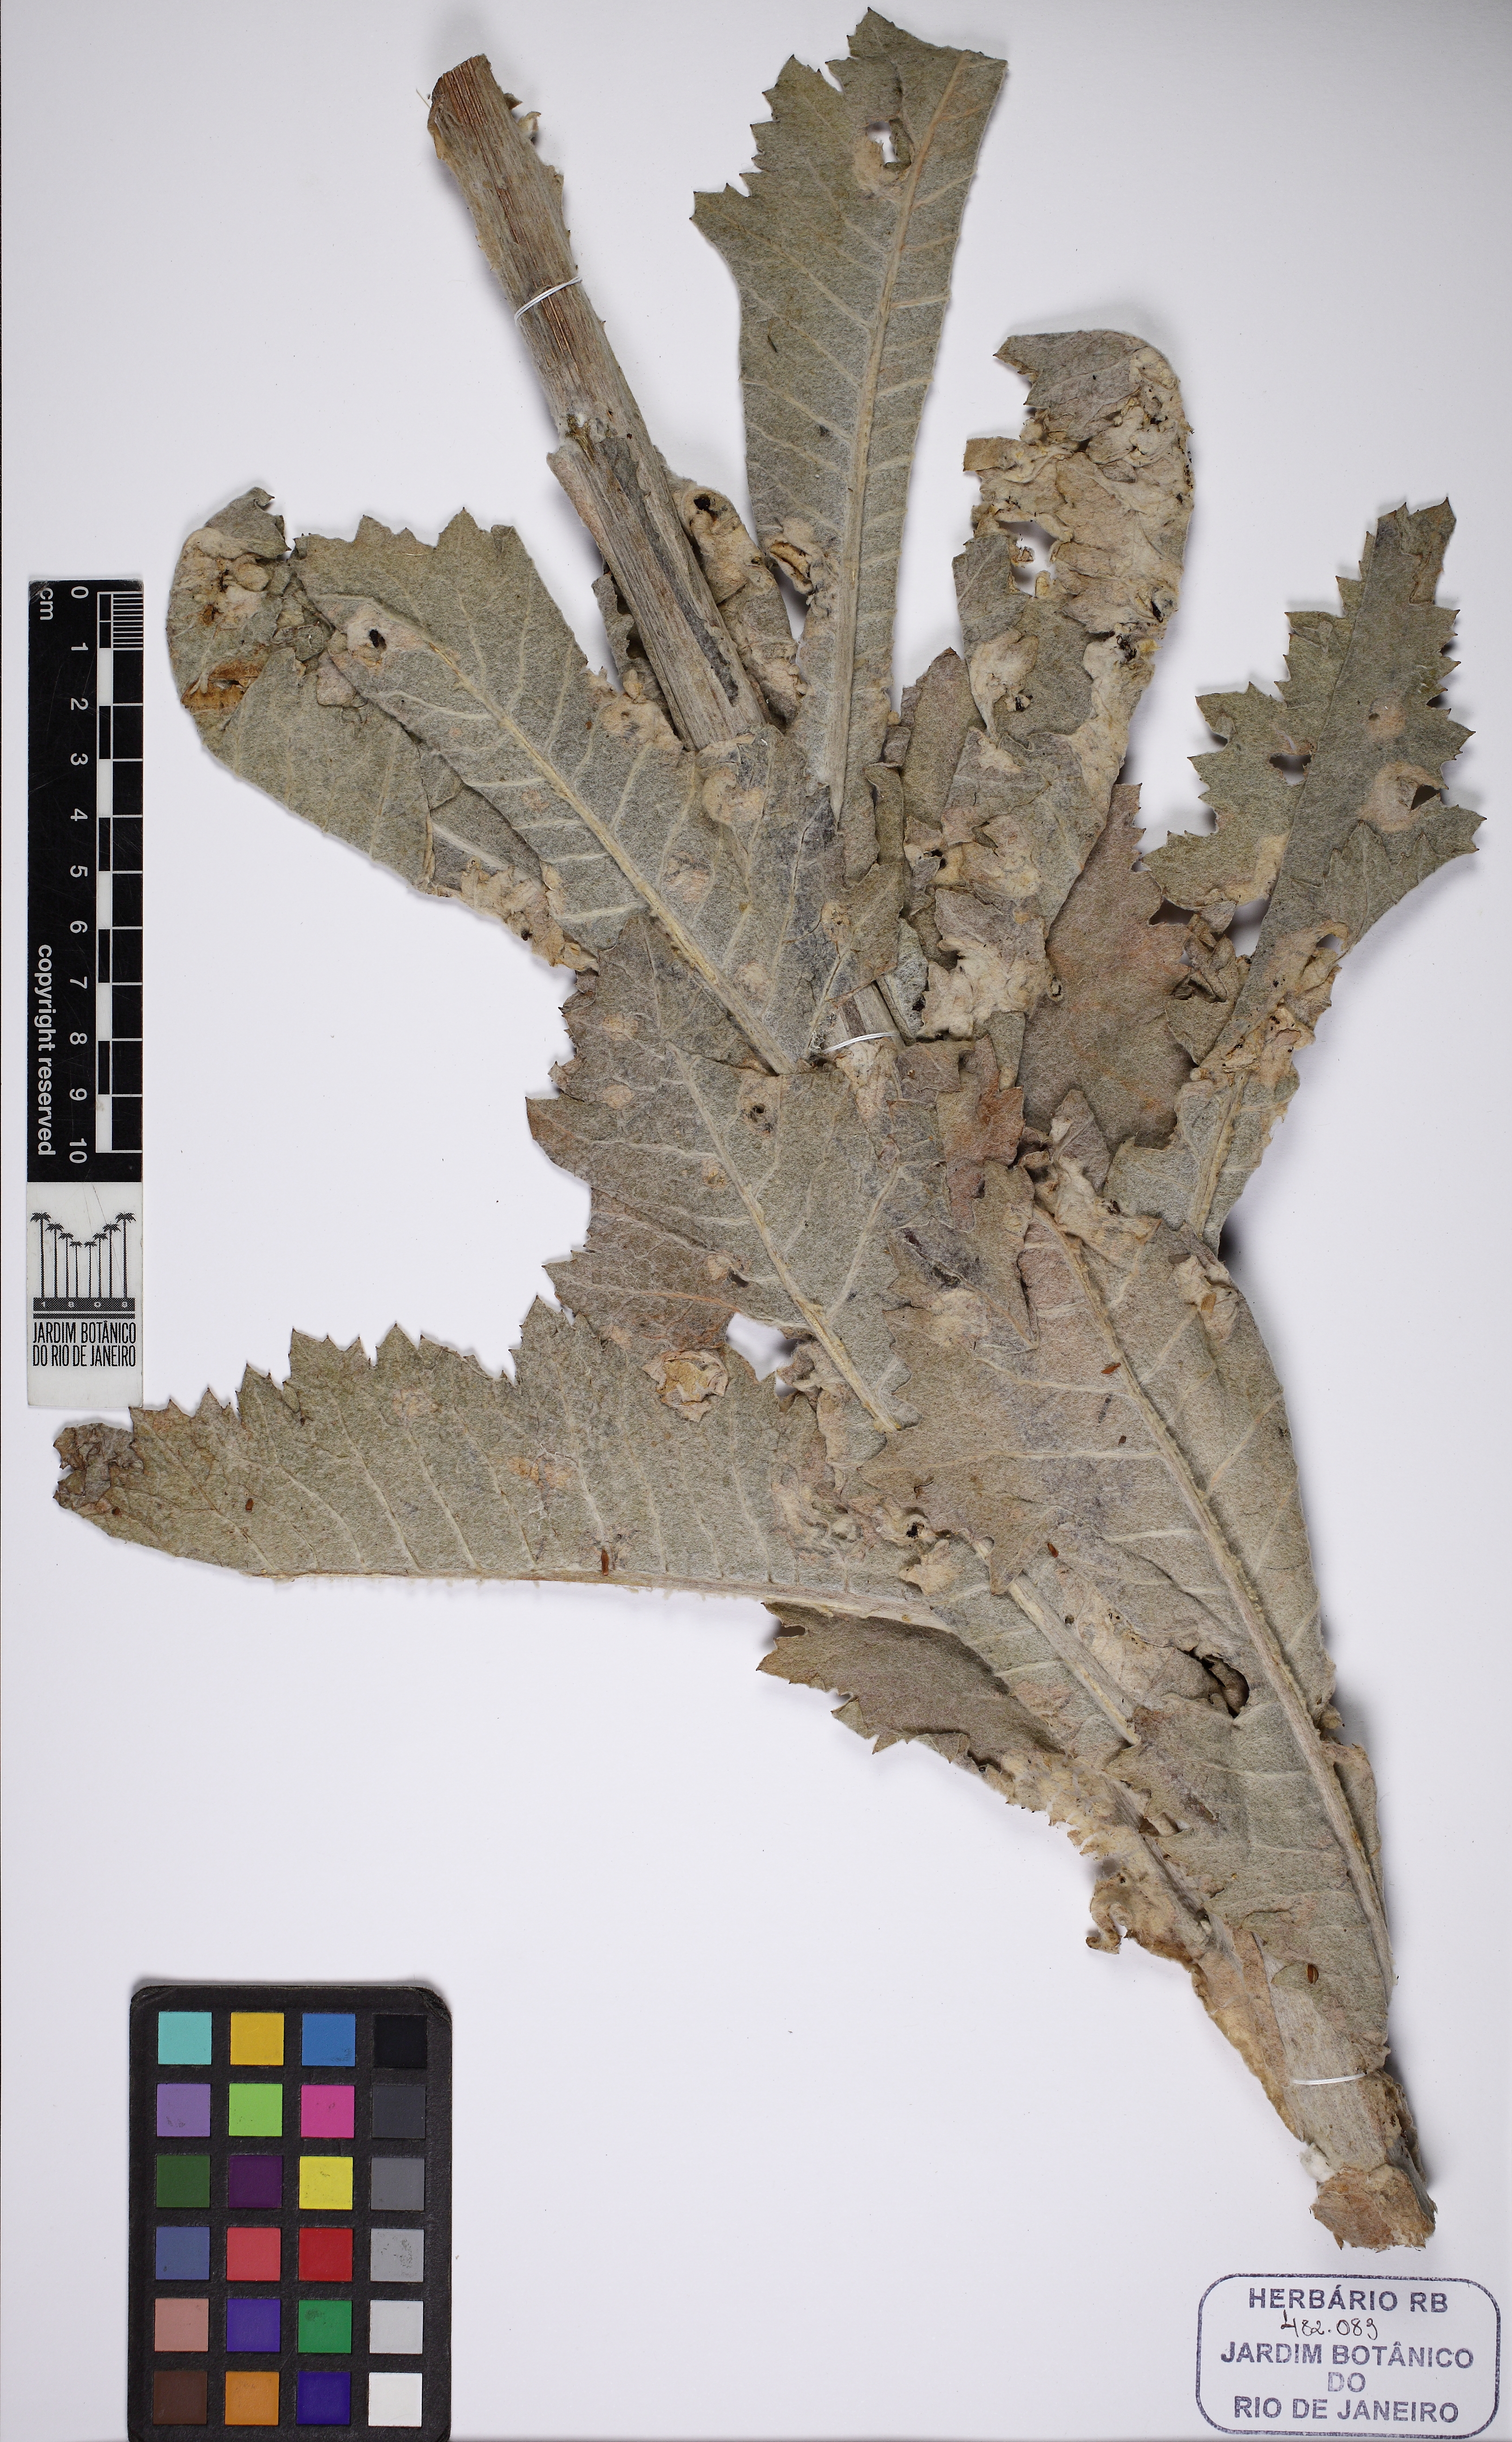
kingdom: Plantae
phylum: Tracheophyta
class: Magnoliopsida
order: Asterales
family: Asteraceae
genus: Senecio
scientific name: Senecio dumetorum
